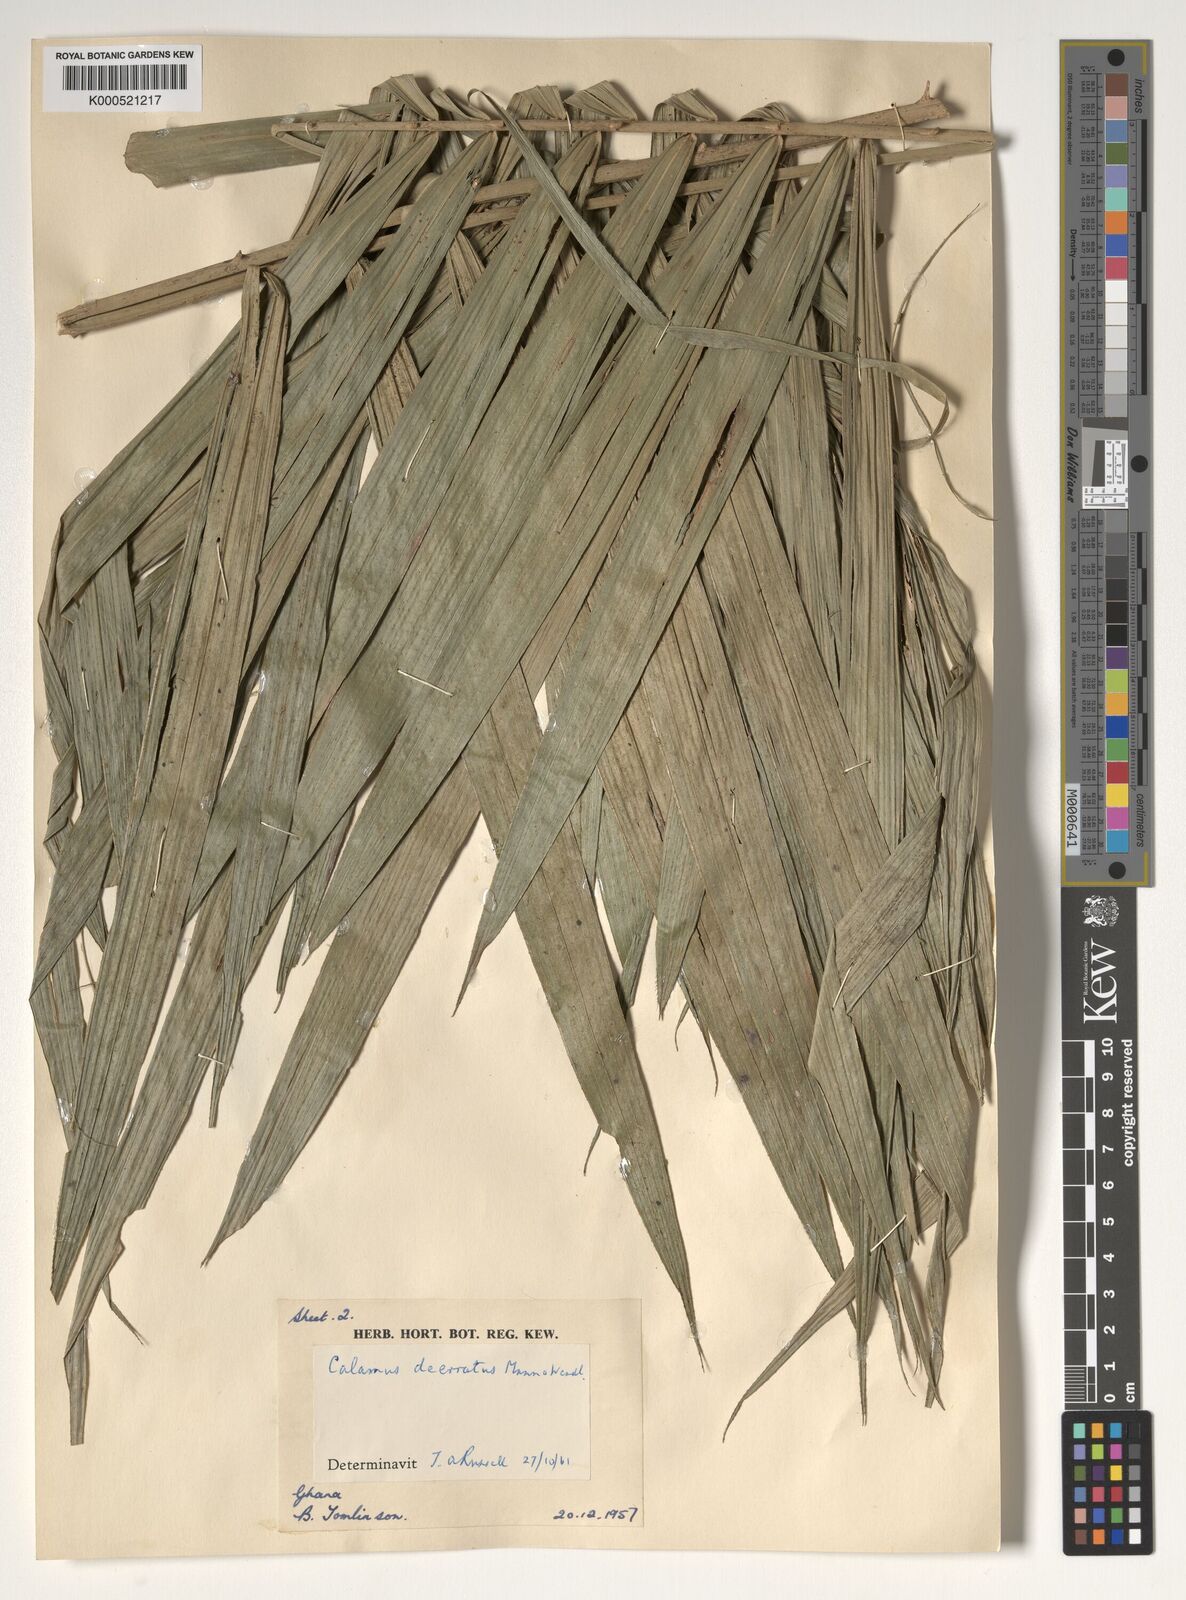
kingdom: Plantae
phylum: Tracheophyta
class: Liliopsida
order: Arecales
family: Arecaceae
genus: Calamus
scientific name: Calamus deerratus
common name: Rattan
